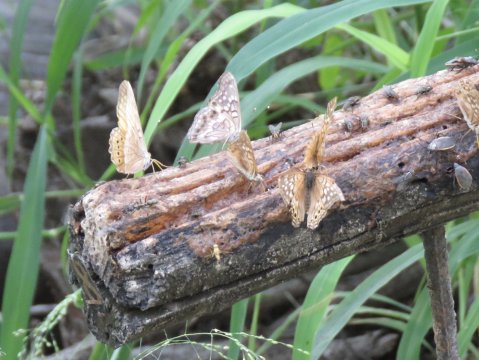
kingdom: Animalia
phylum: Arthropoda
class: Insecta
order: Lepidoptera
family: Nymphalidae
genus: Asterocampa
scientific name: Asterocampa clyton
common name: Tawny Emperor
